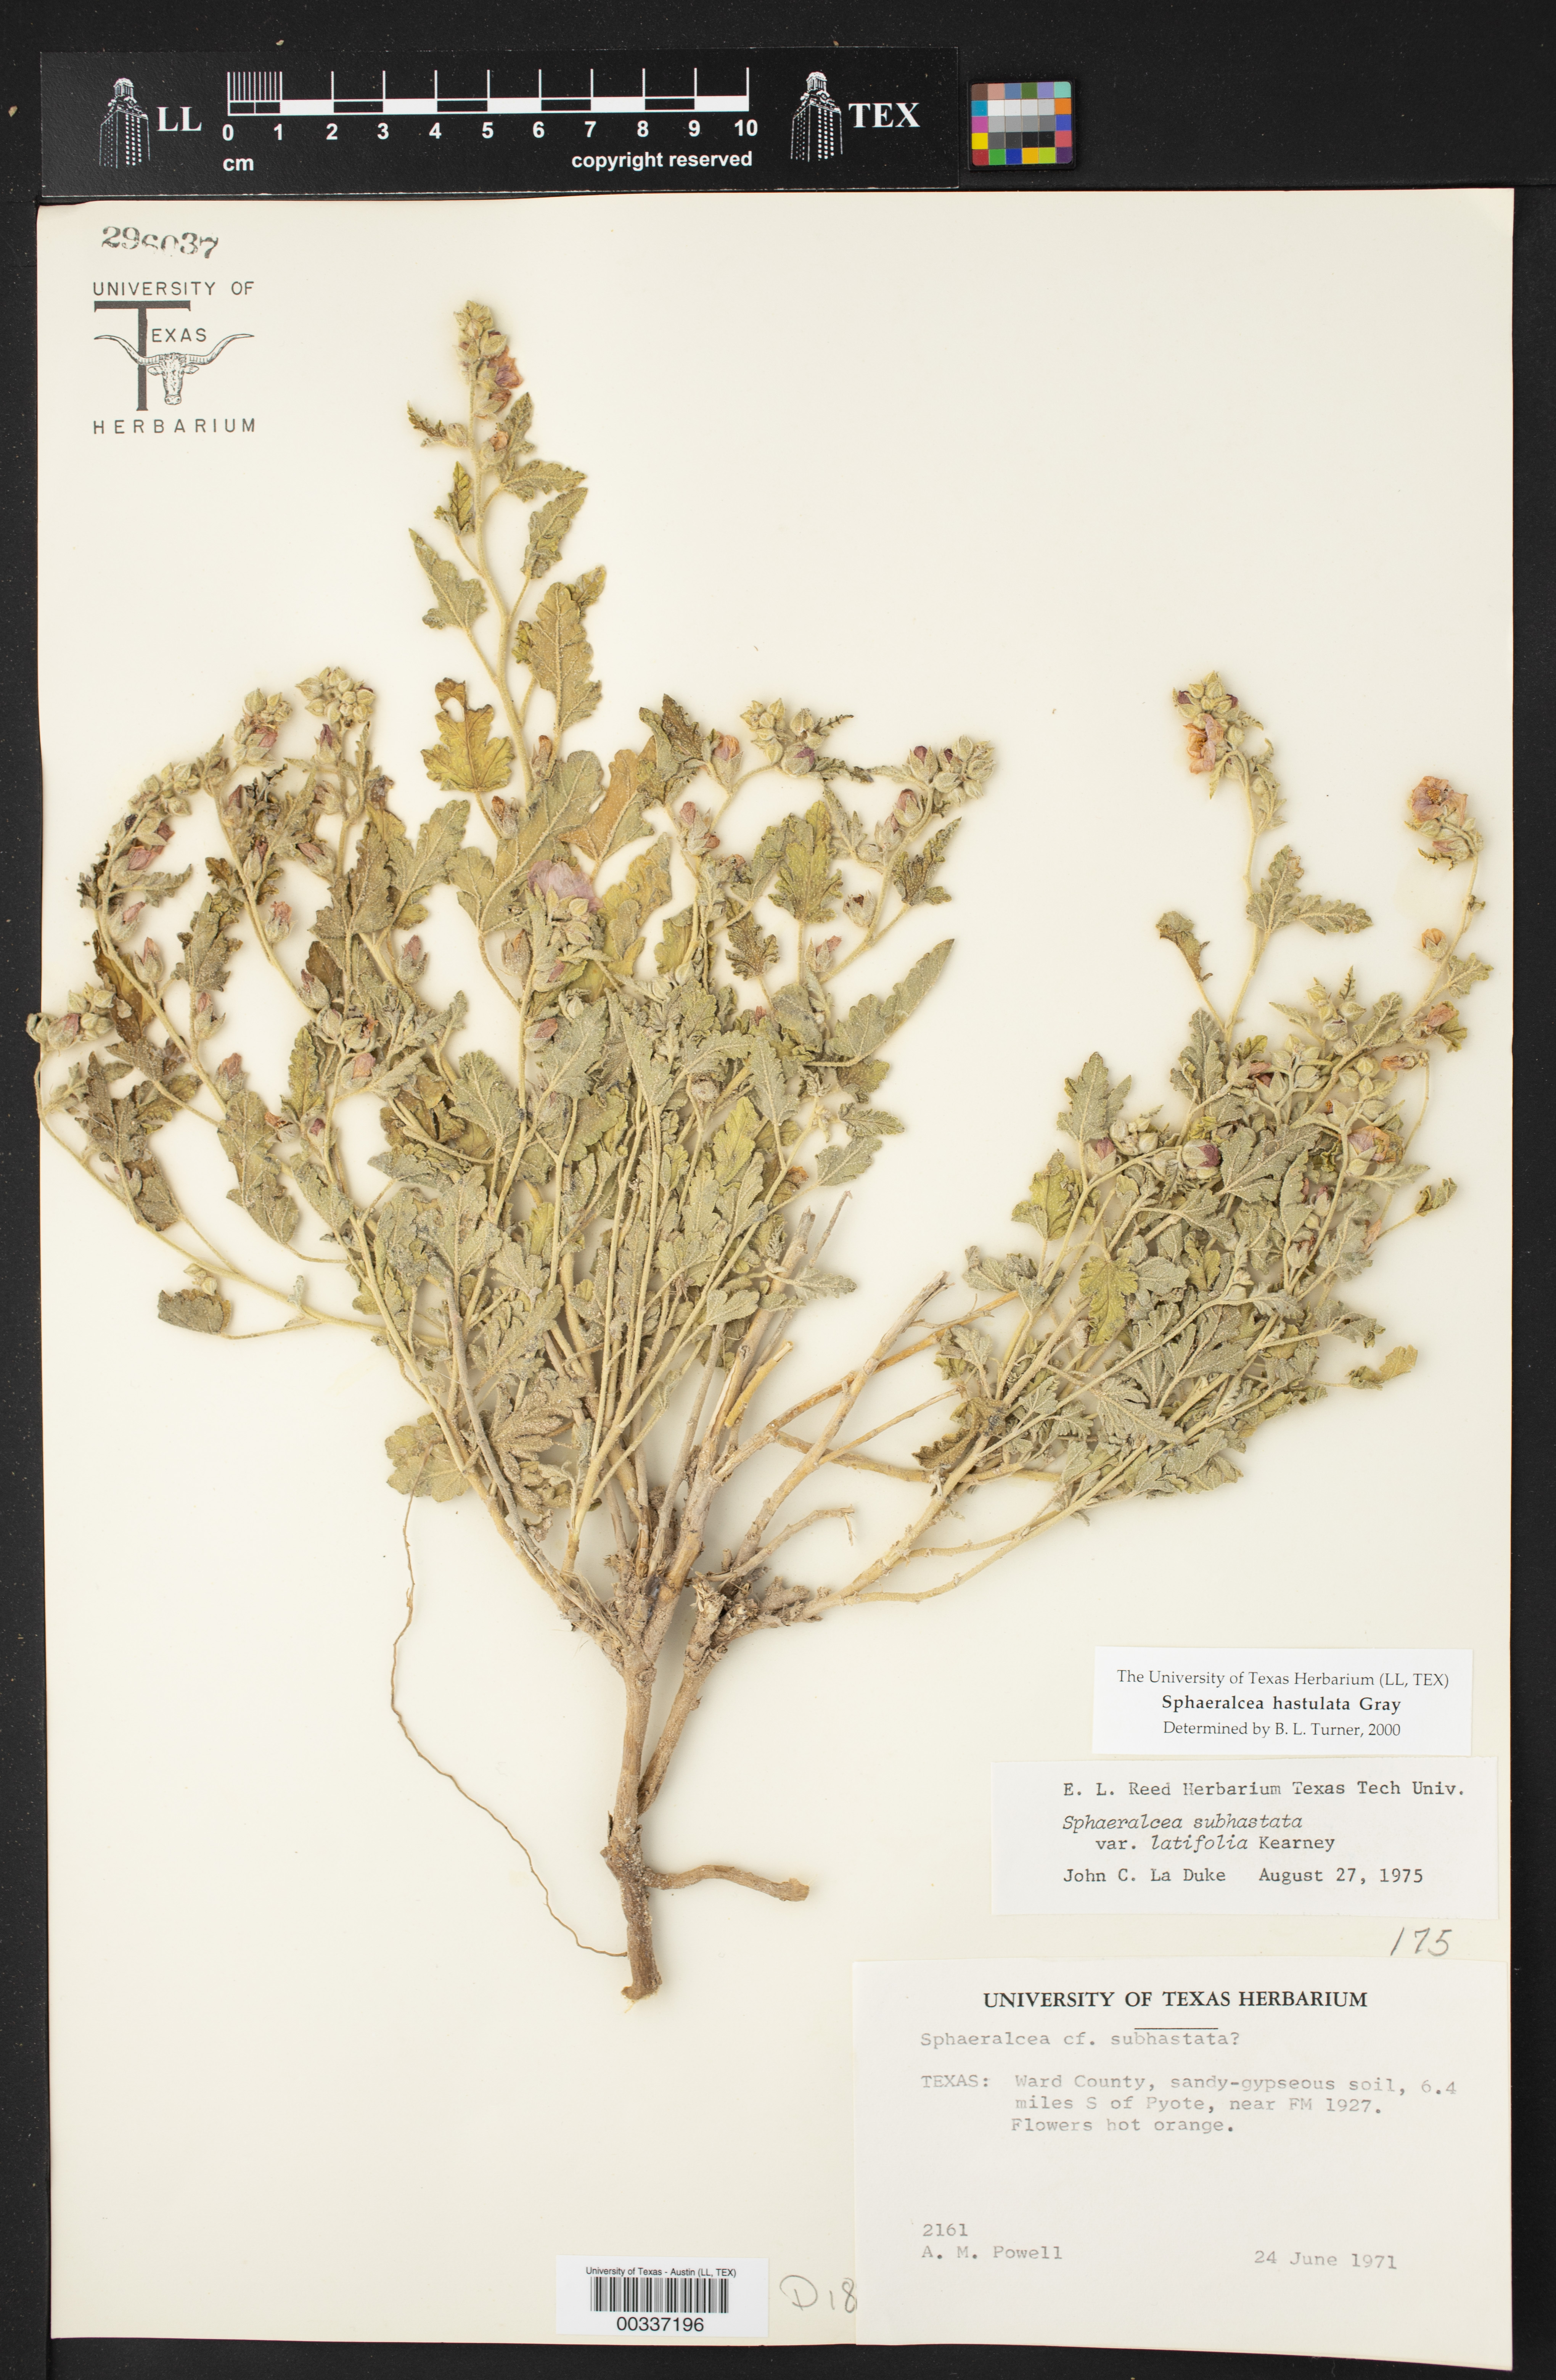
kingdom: Plantae
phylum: Tracheophyta
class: Magnoliopsida
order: Malvales
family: Malvaceae
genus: Sphaeralcea
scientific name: Sphaeralcea hastulata
